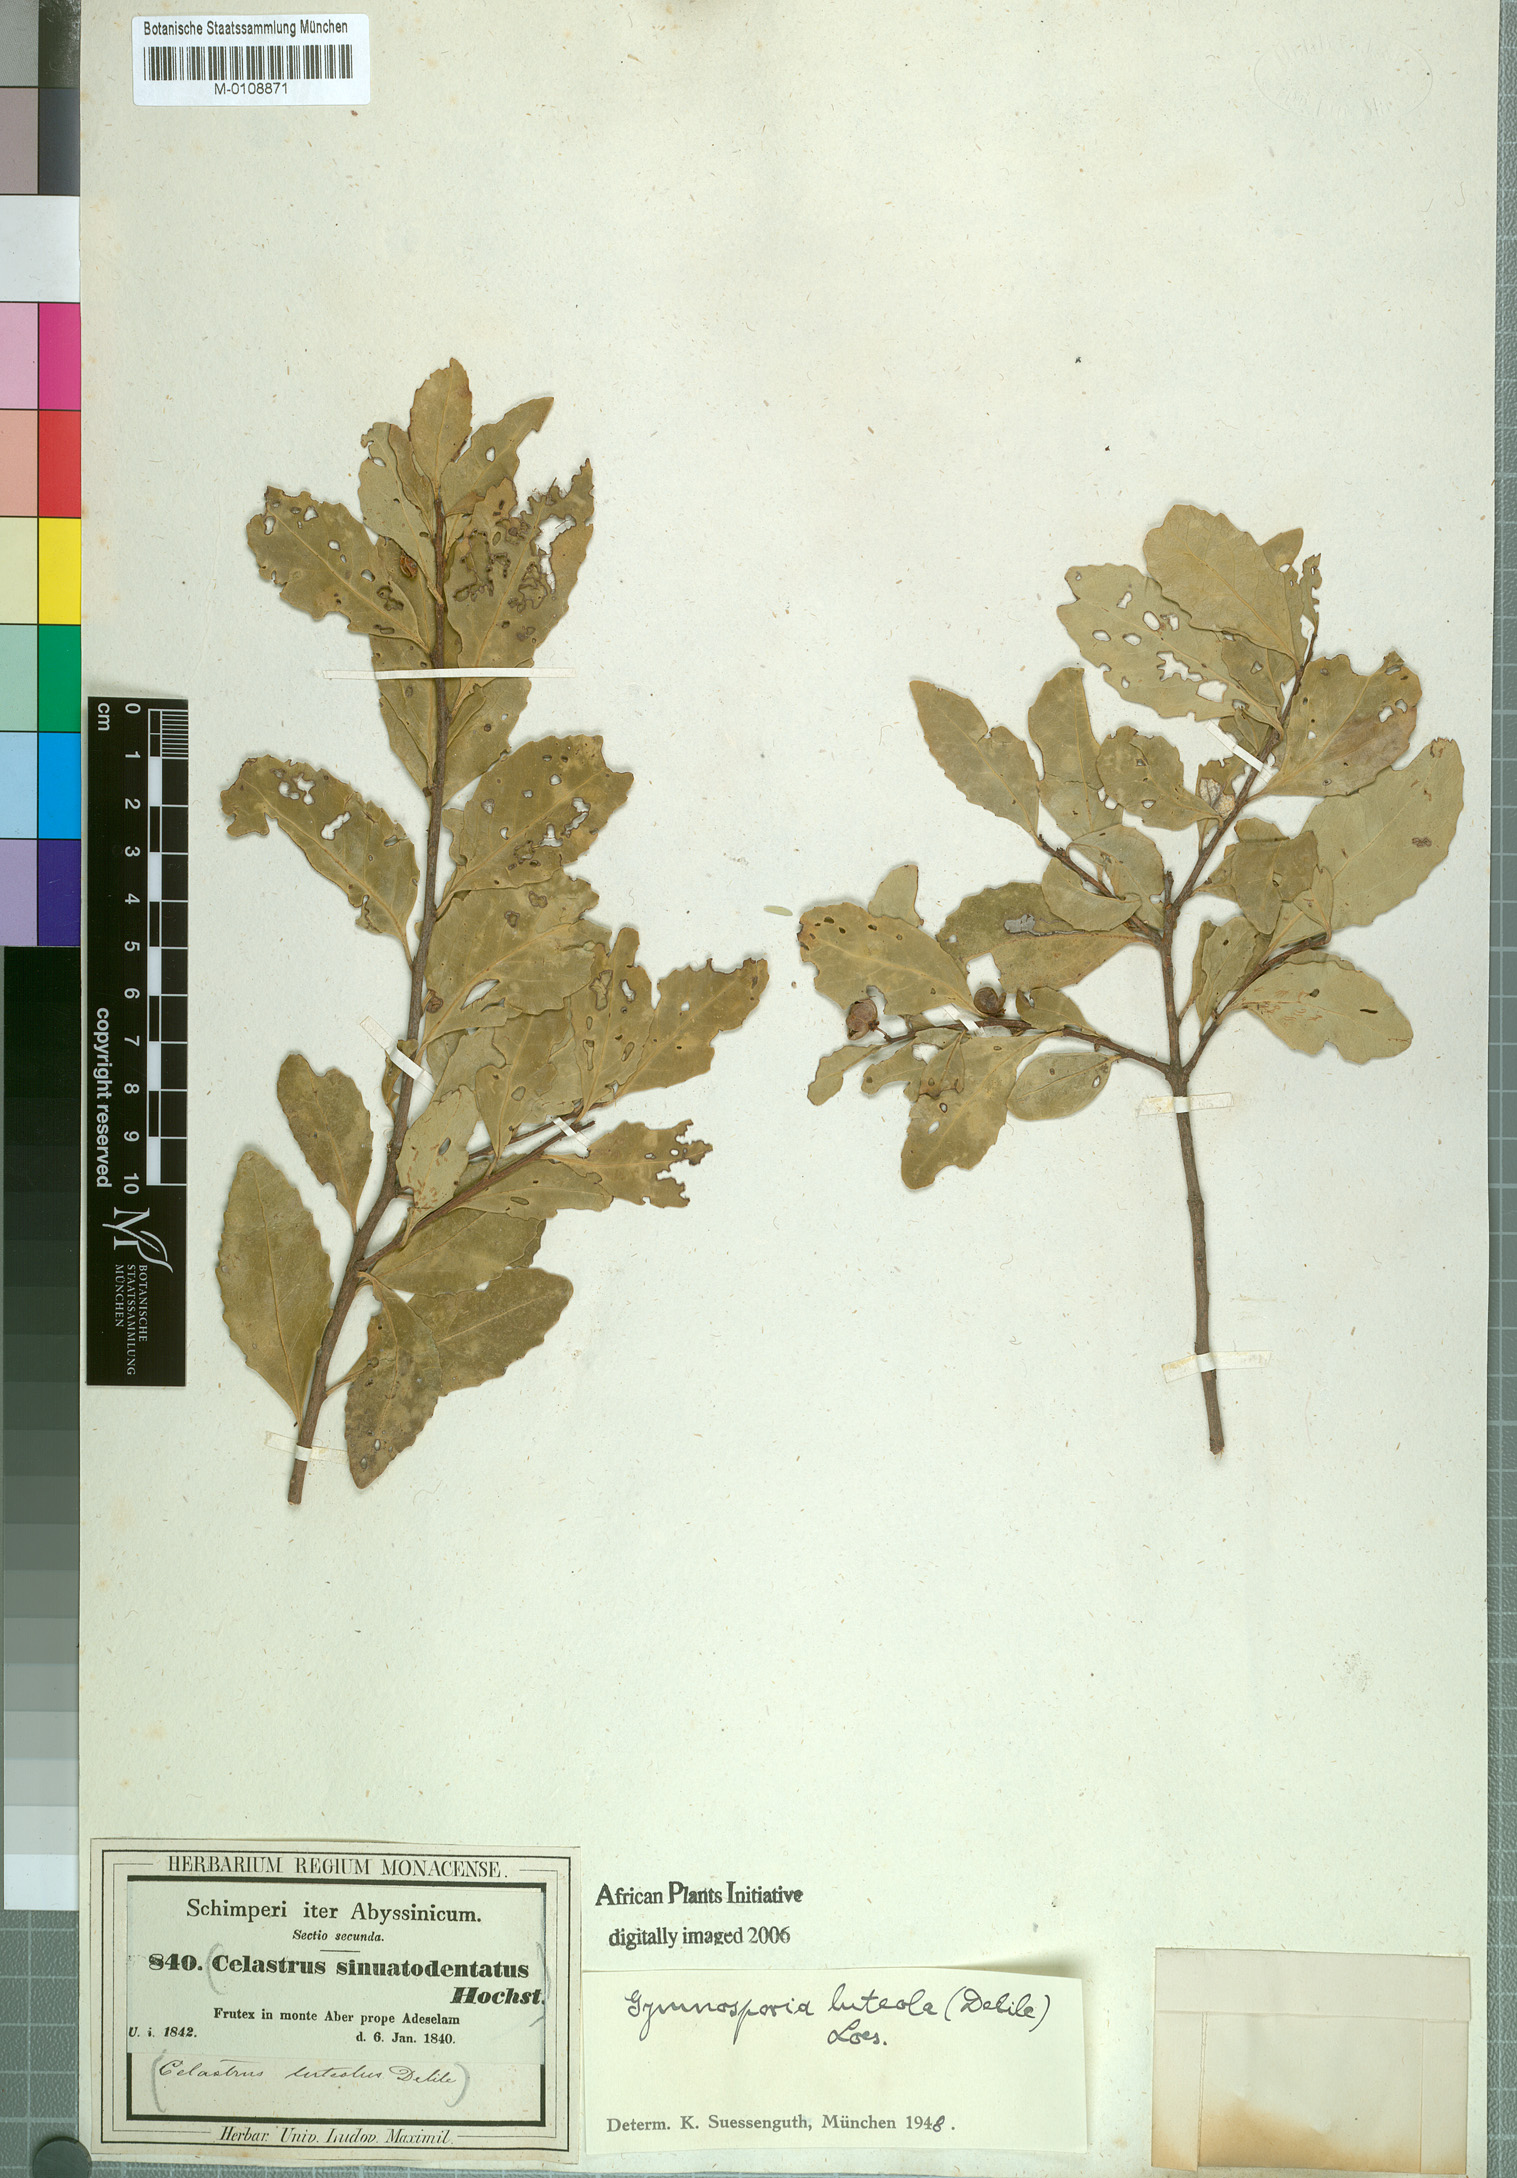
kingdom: Plantae
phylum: Tracheophyta
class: Magnoliopsida
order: Celastrales
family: Celastraceae
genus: Gymnosporia
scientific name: Gymnosporia undata
